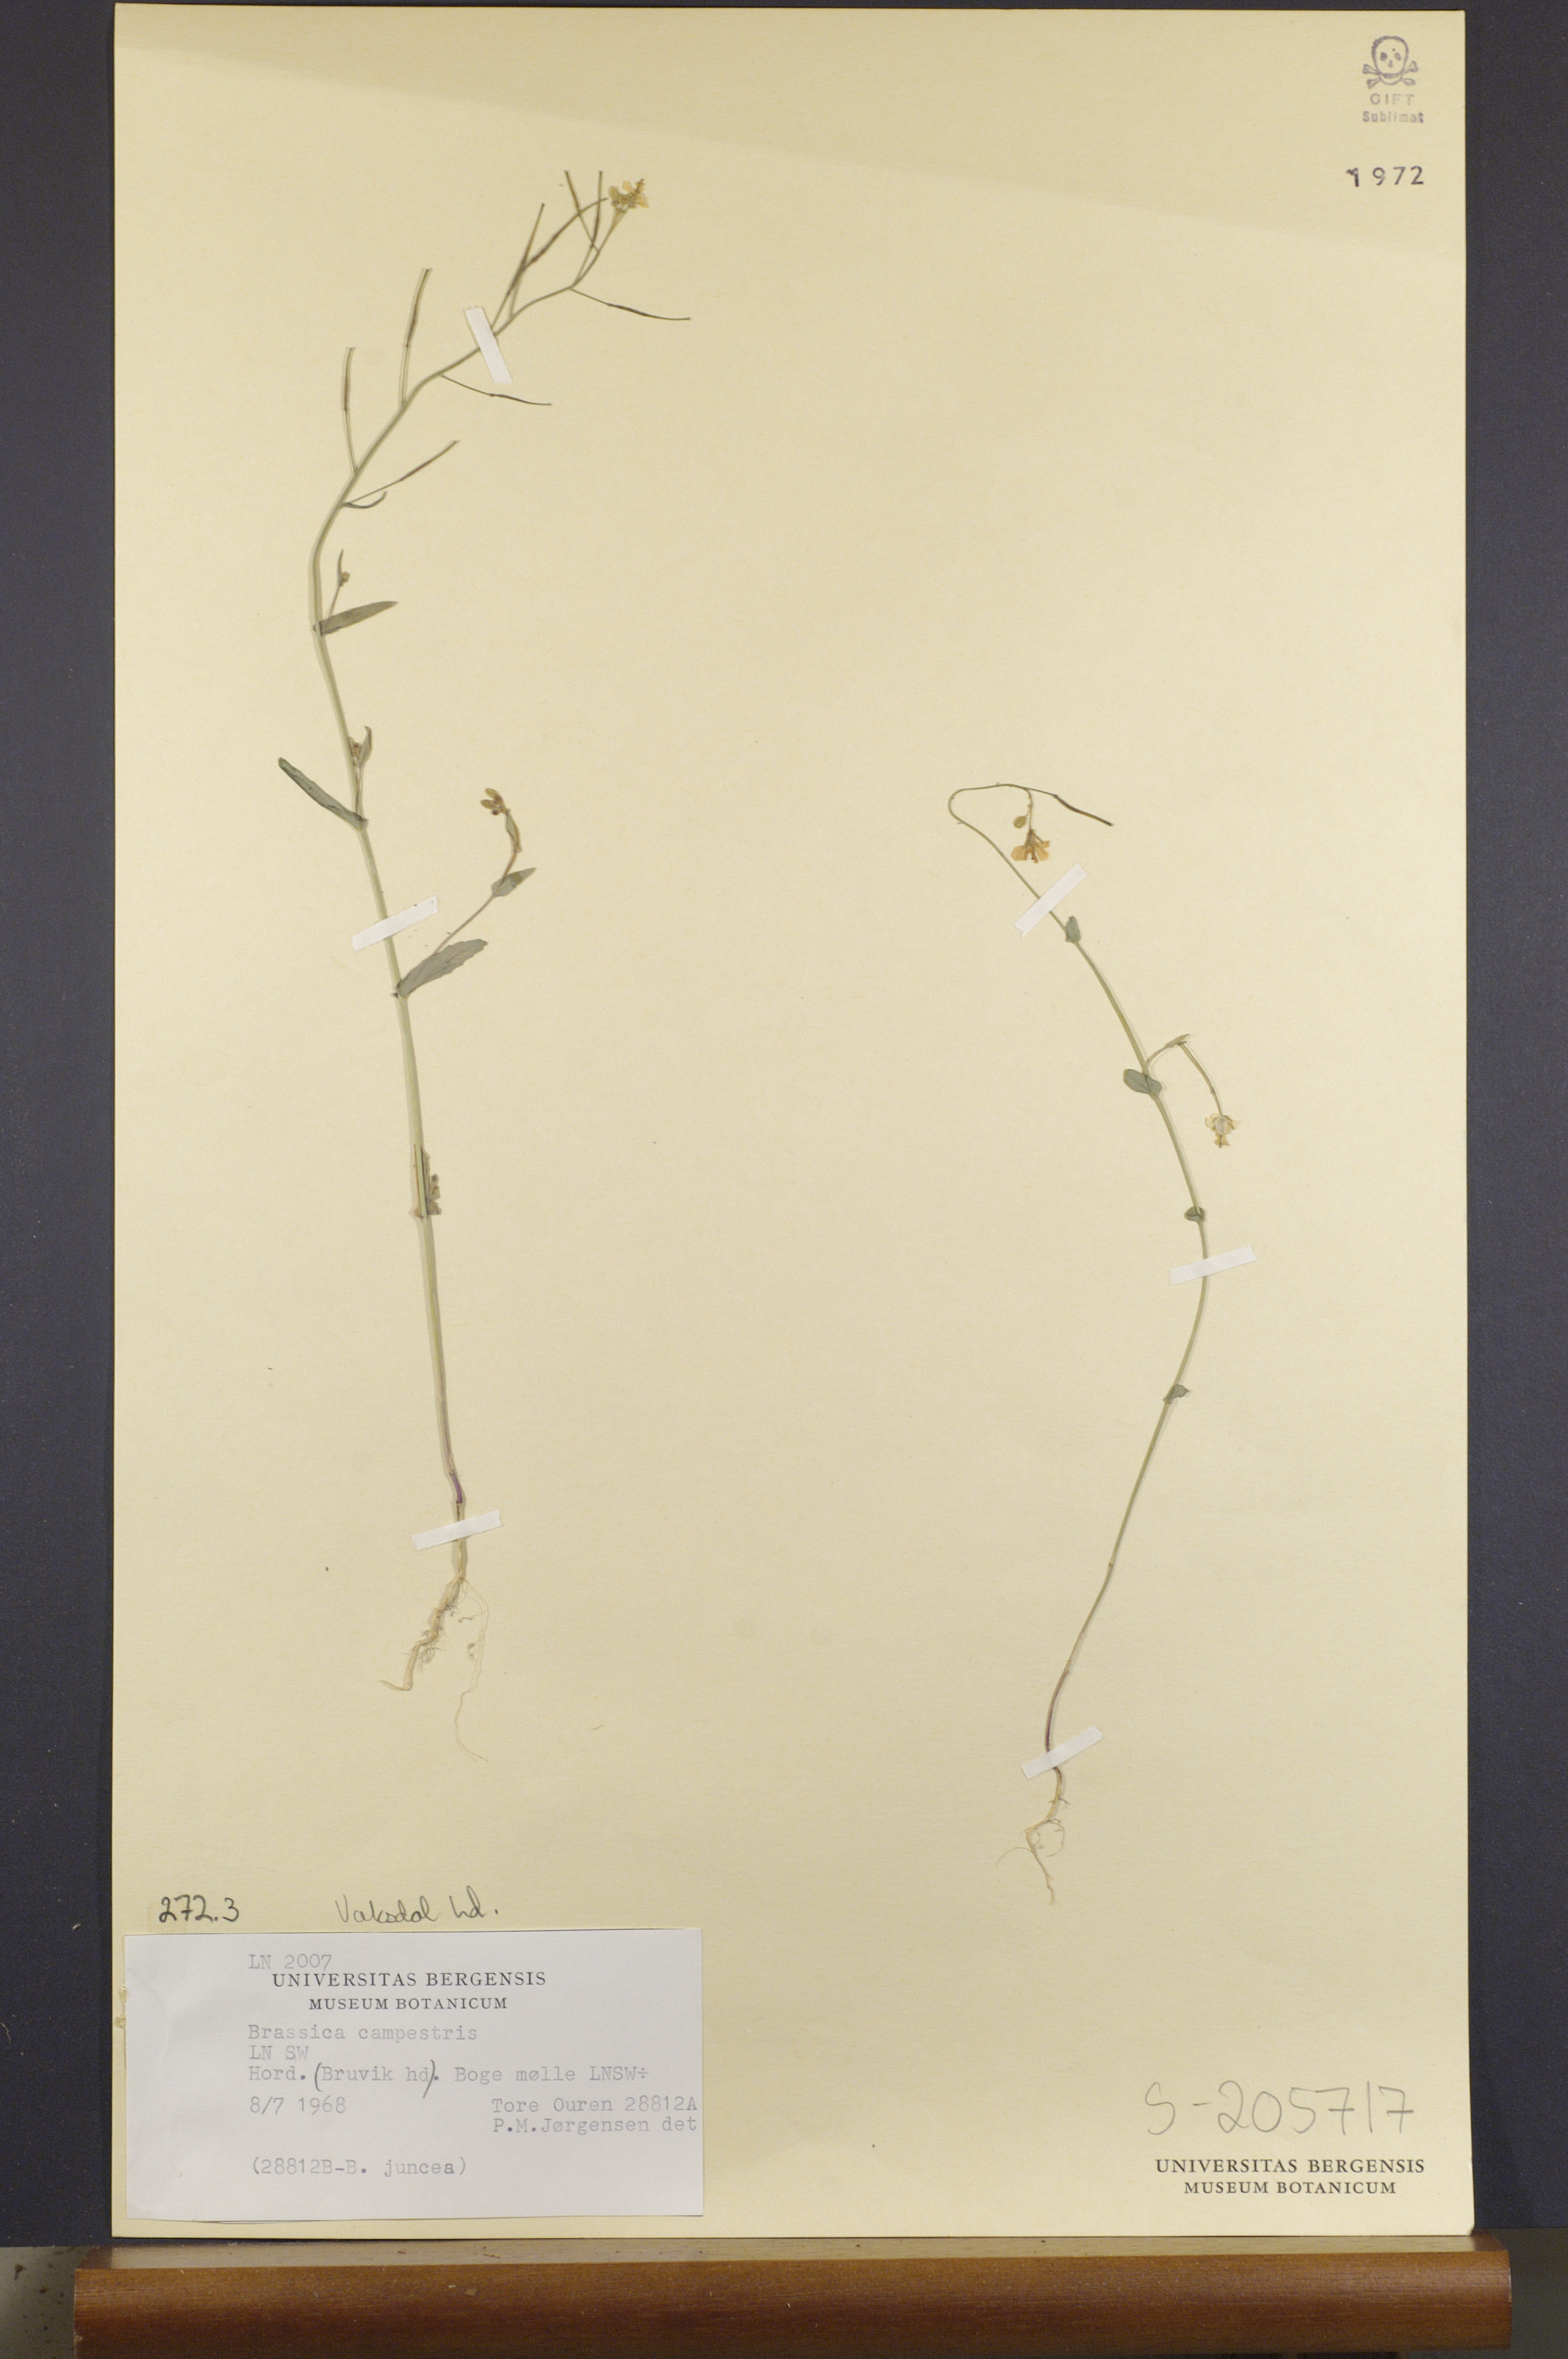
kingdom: Plantae
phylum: Tracheophyta
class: Magnoliopsida
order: Brassicales
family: Brassicaceae
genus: Brassica
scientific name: Brassica rapa
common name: Field mustard
